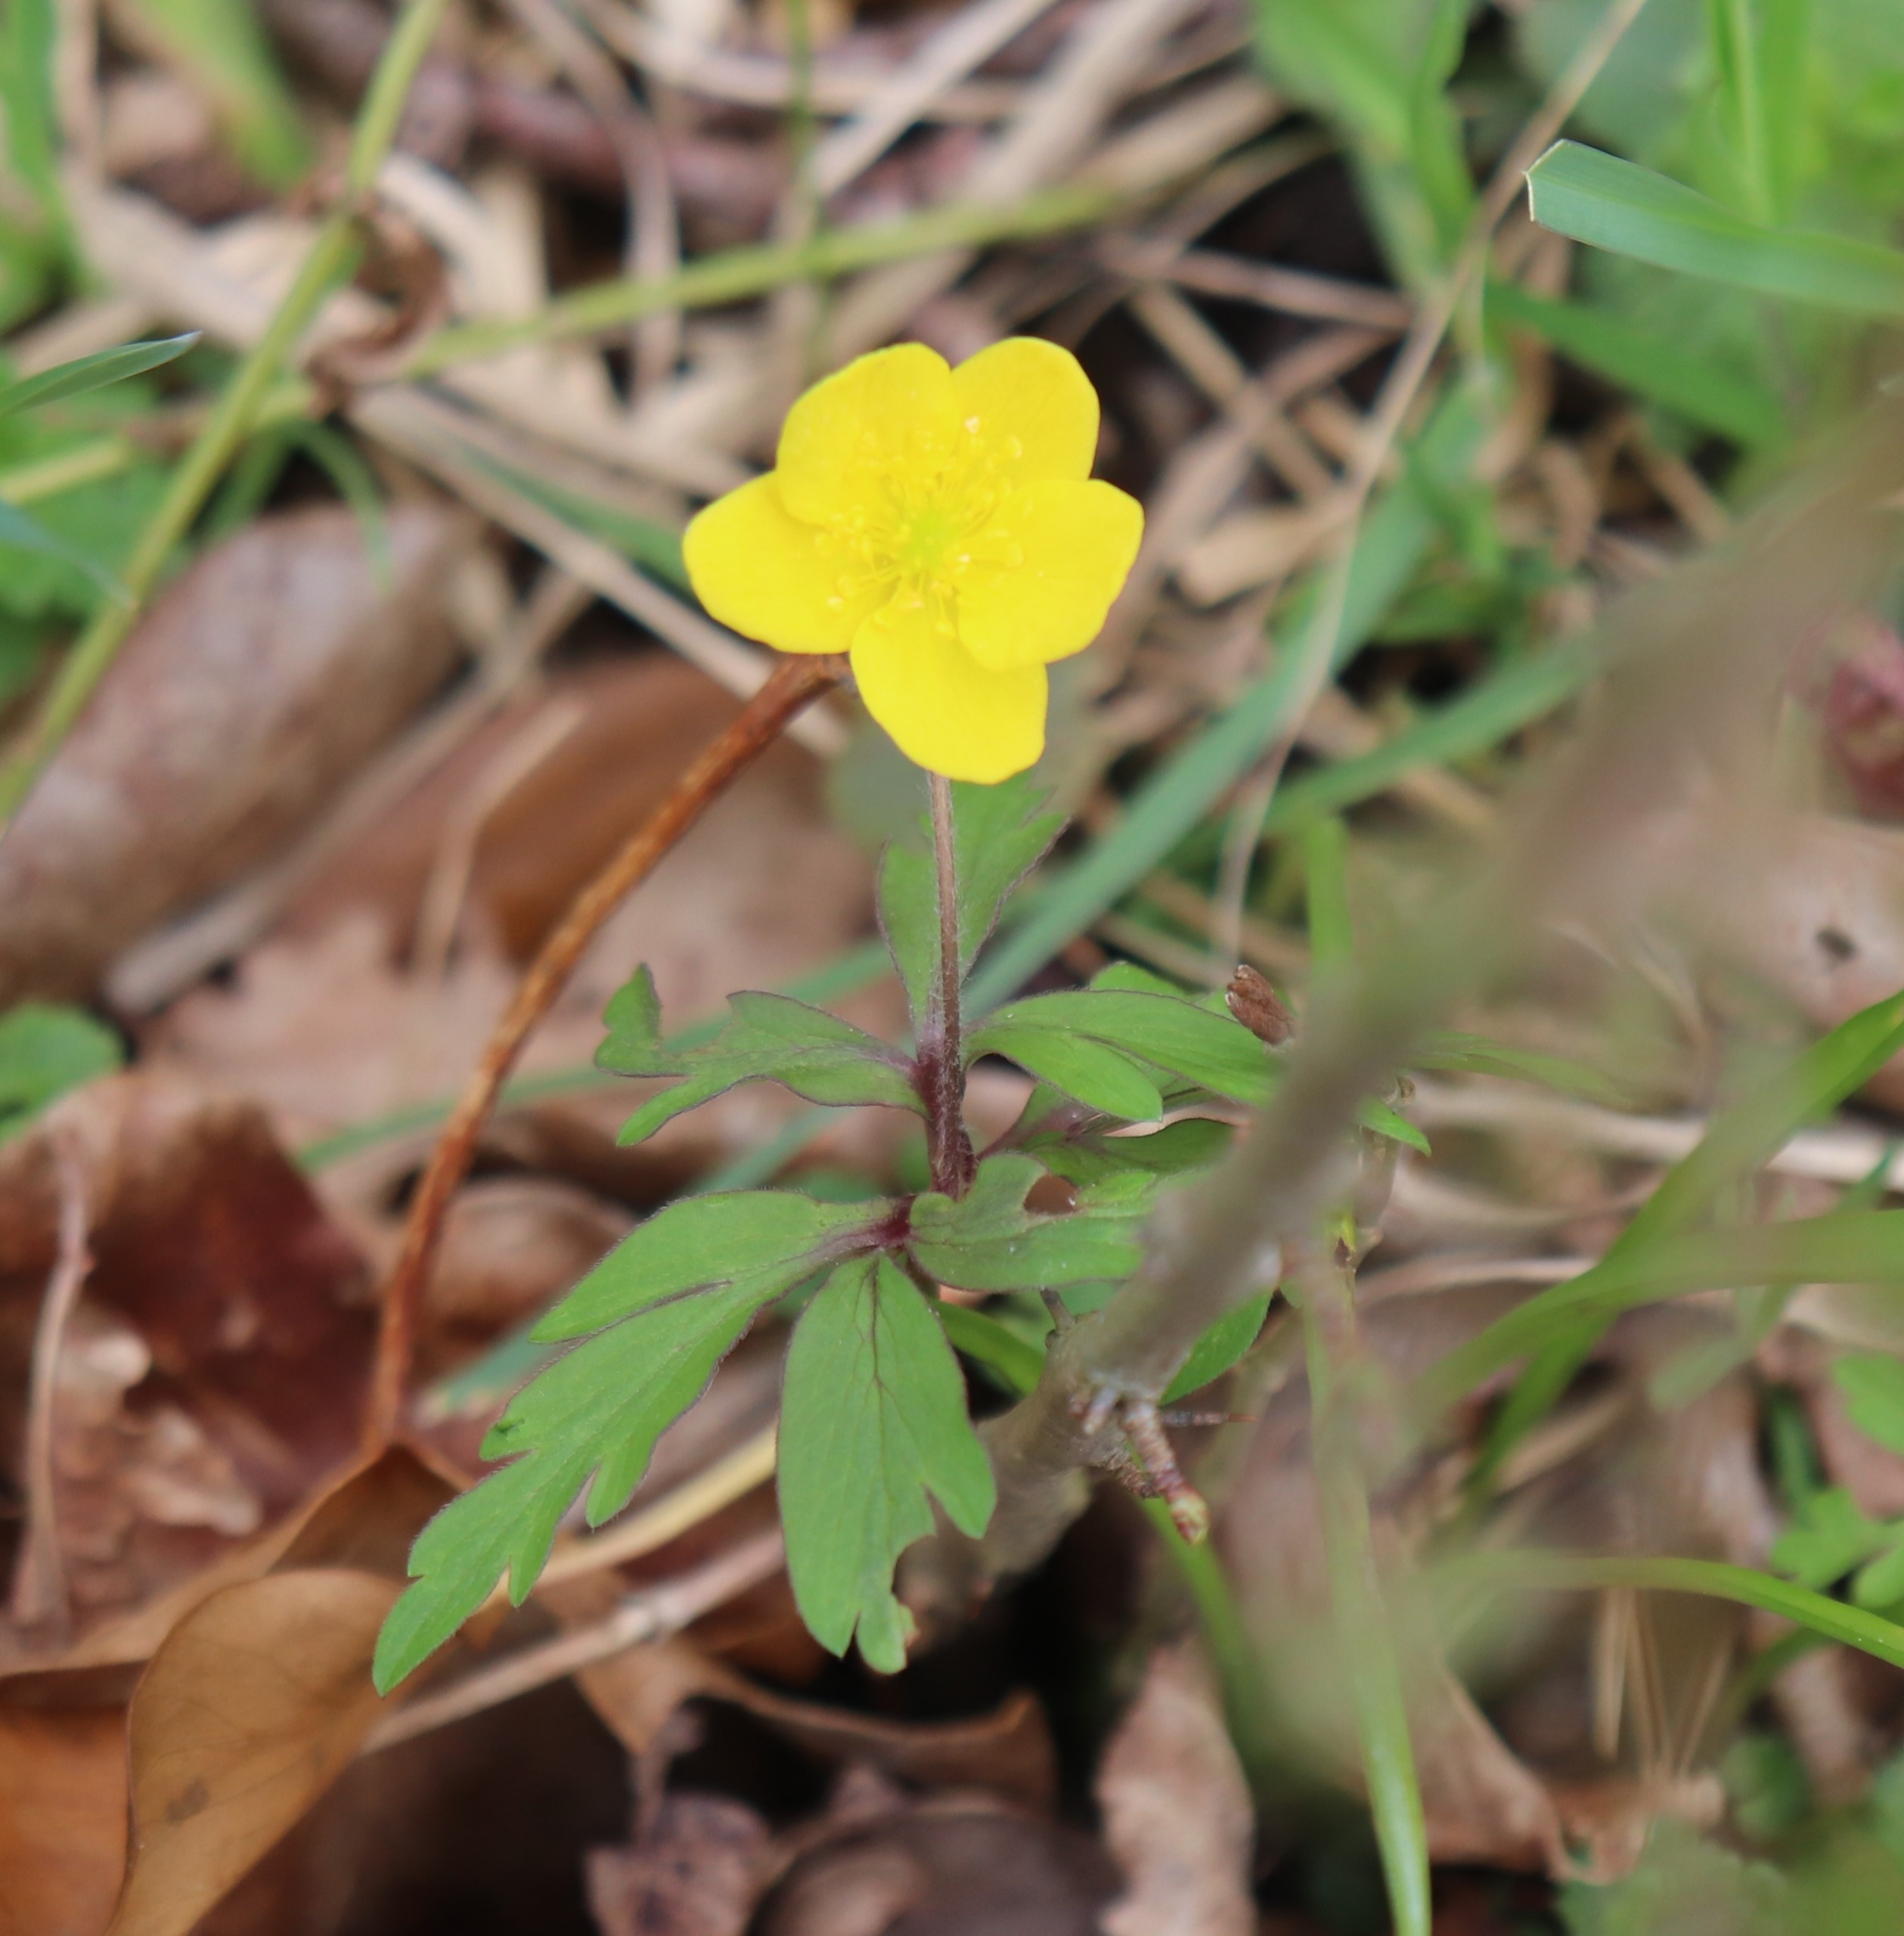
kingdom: Plantae
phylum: Tracheophyta
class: Magnoliopsida
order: Ranunculales
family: Ranunculaceae
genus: Anemone
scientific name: Anemone ranunculoides
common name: Gul anemone
